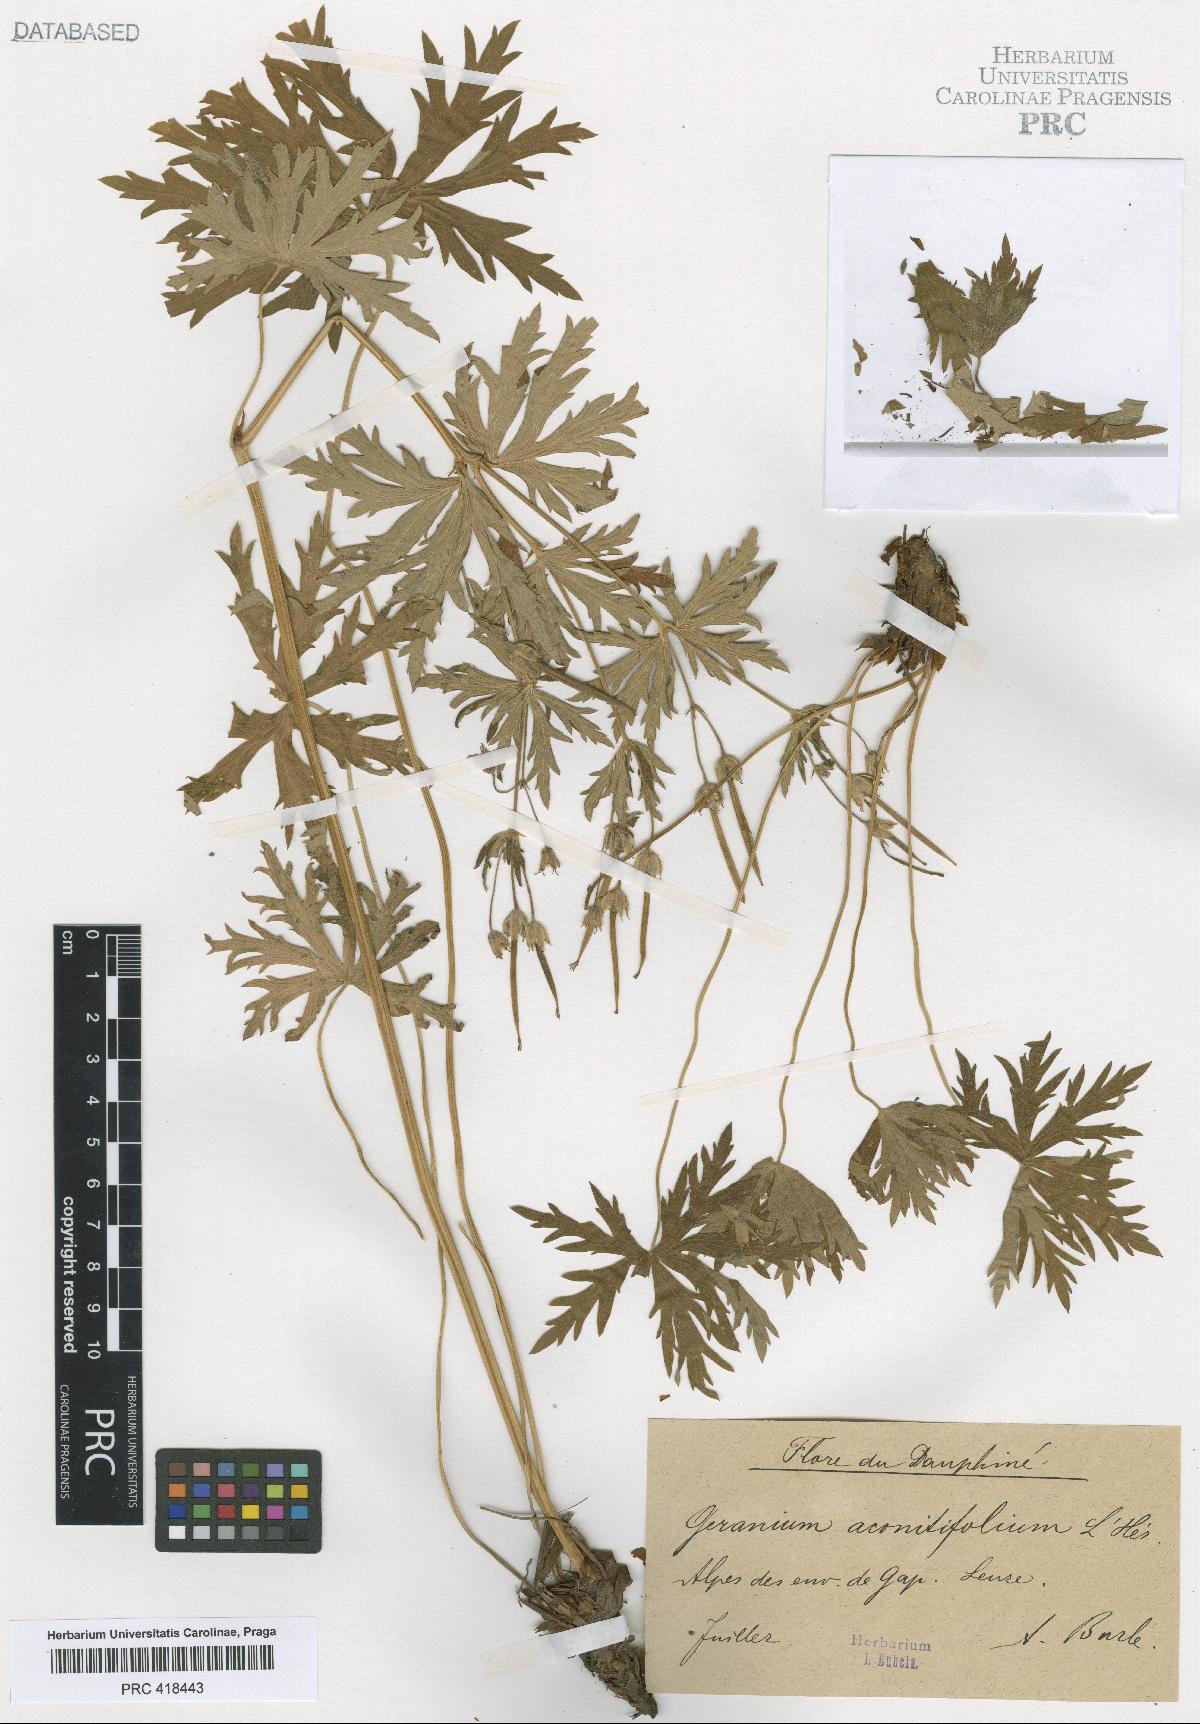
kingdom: Plantae
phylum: Tracheophyta
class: Magnoliopsida
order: Geraniales
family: Geraniaceae
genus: Geranium
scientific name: Geranium rivulare
